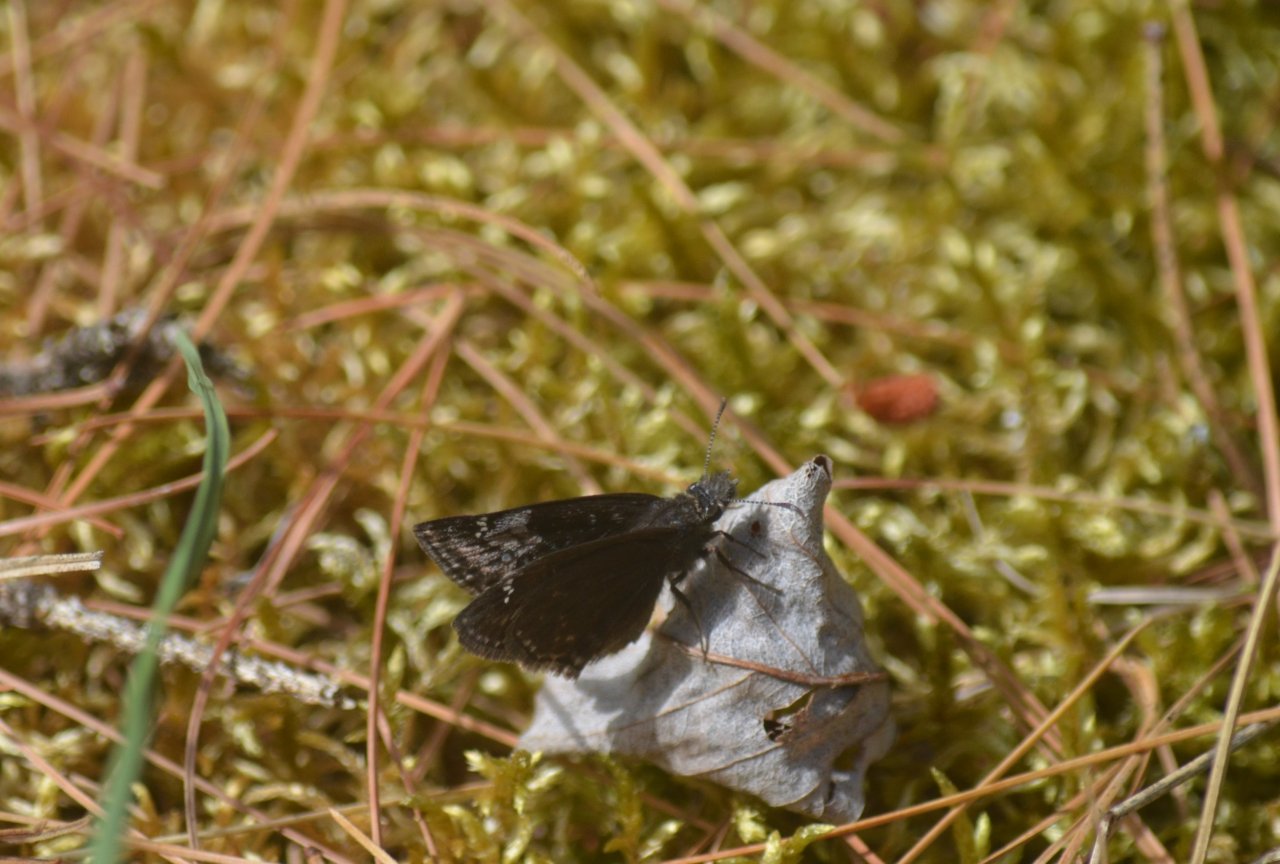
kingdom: Animalia
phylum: Arthropoda
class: Insecta
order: Lepidoptera
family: Hesperiidae
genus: Gesta
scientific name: Gesta
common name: Columbine Duskywing
